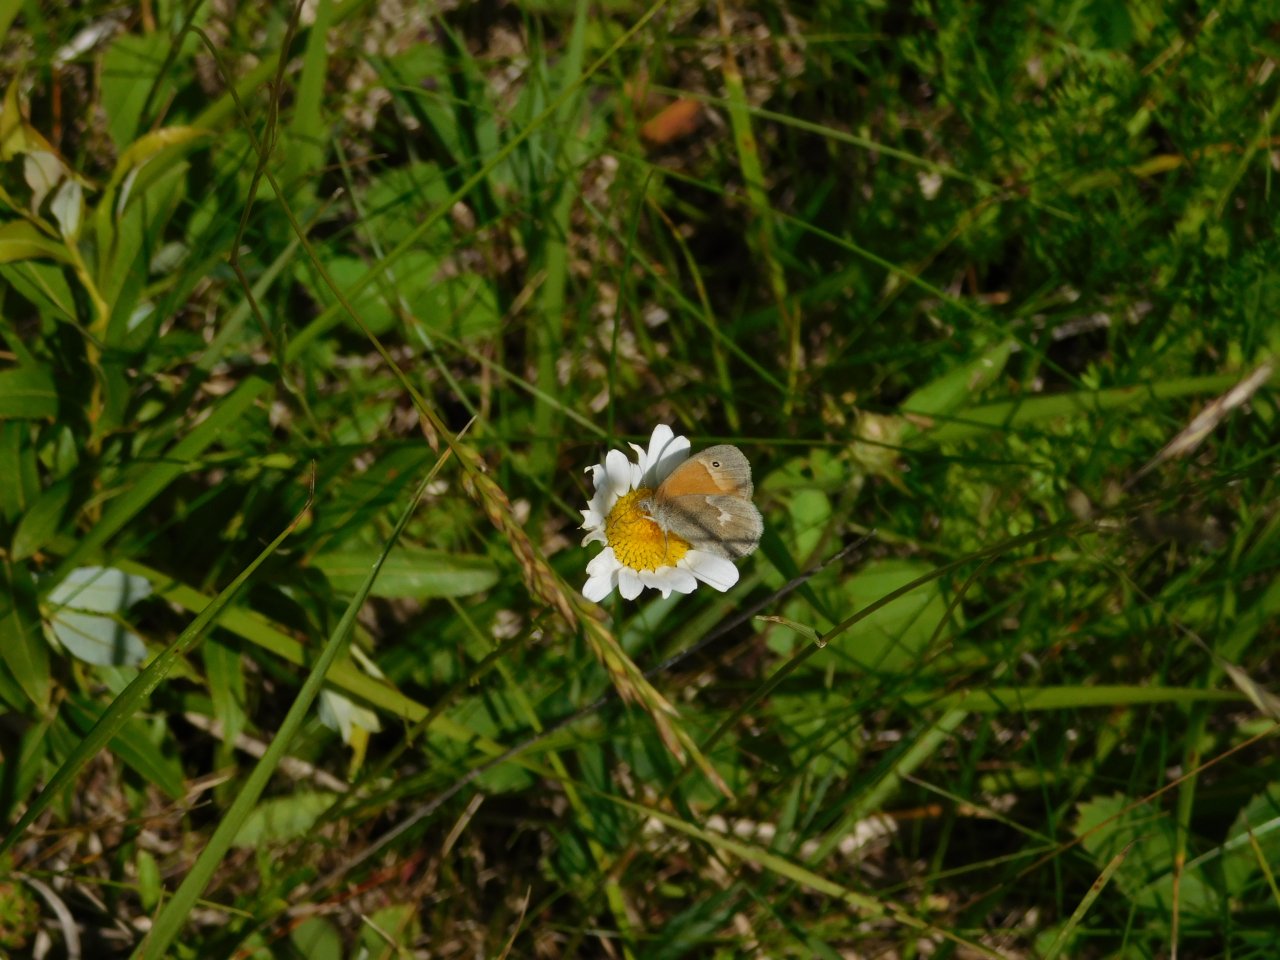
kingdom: Animalia
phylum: Arthropoda
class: Insecta
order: Lepidoptera
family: Nymphalidae
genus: Coenonympha
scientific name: Coenonympha tullia
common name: Large Heath
